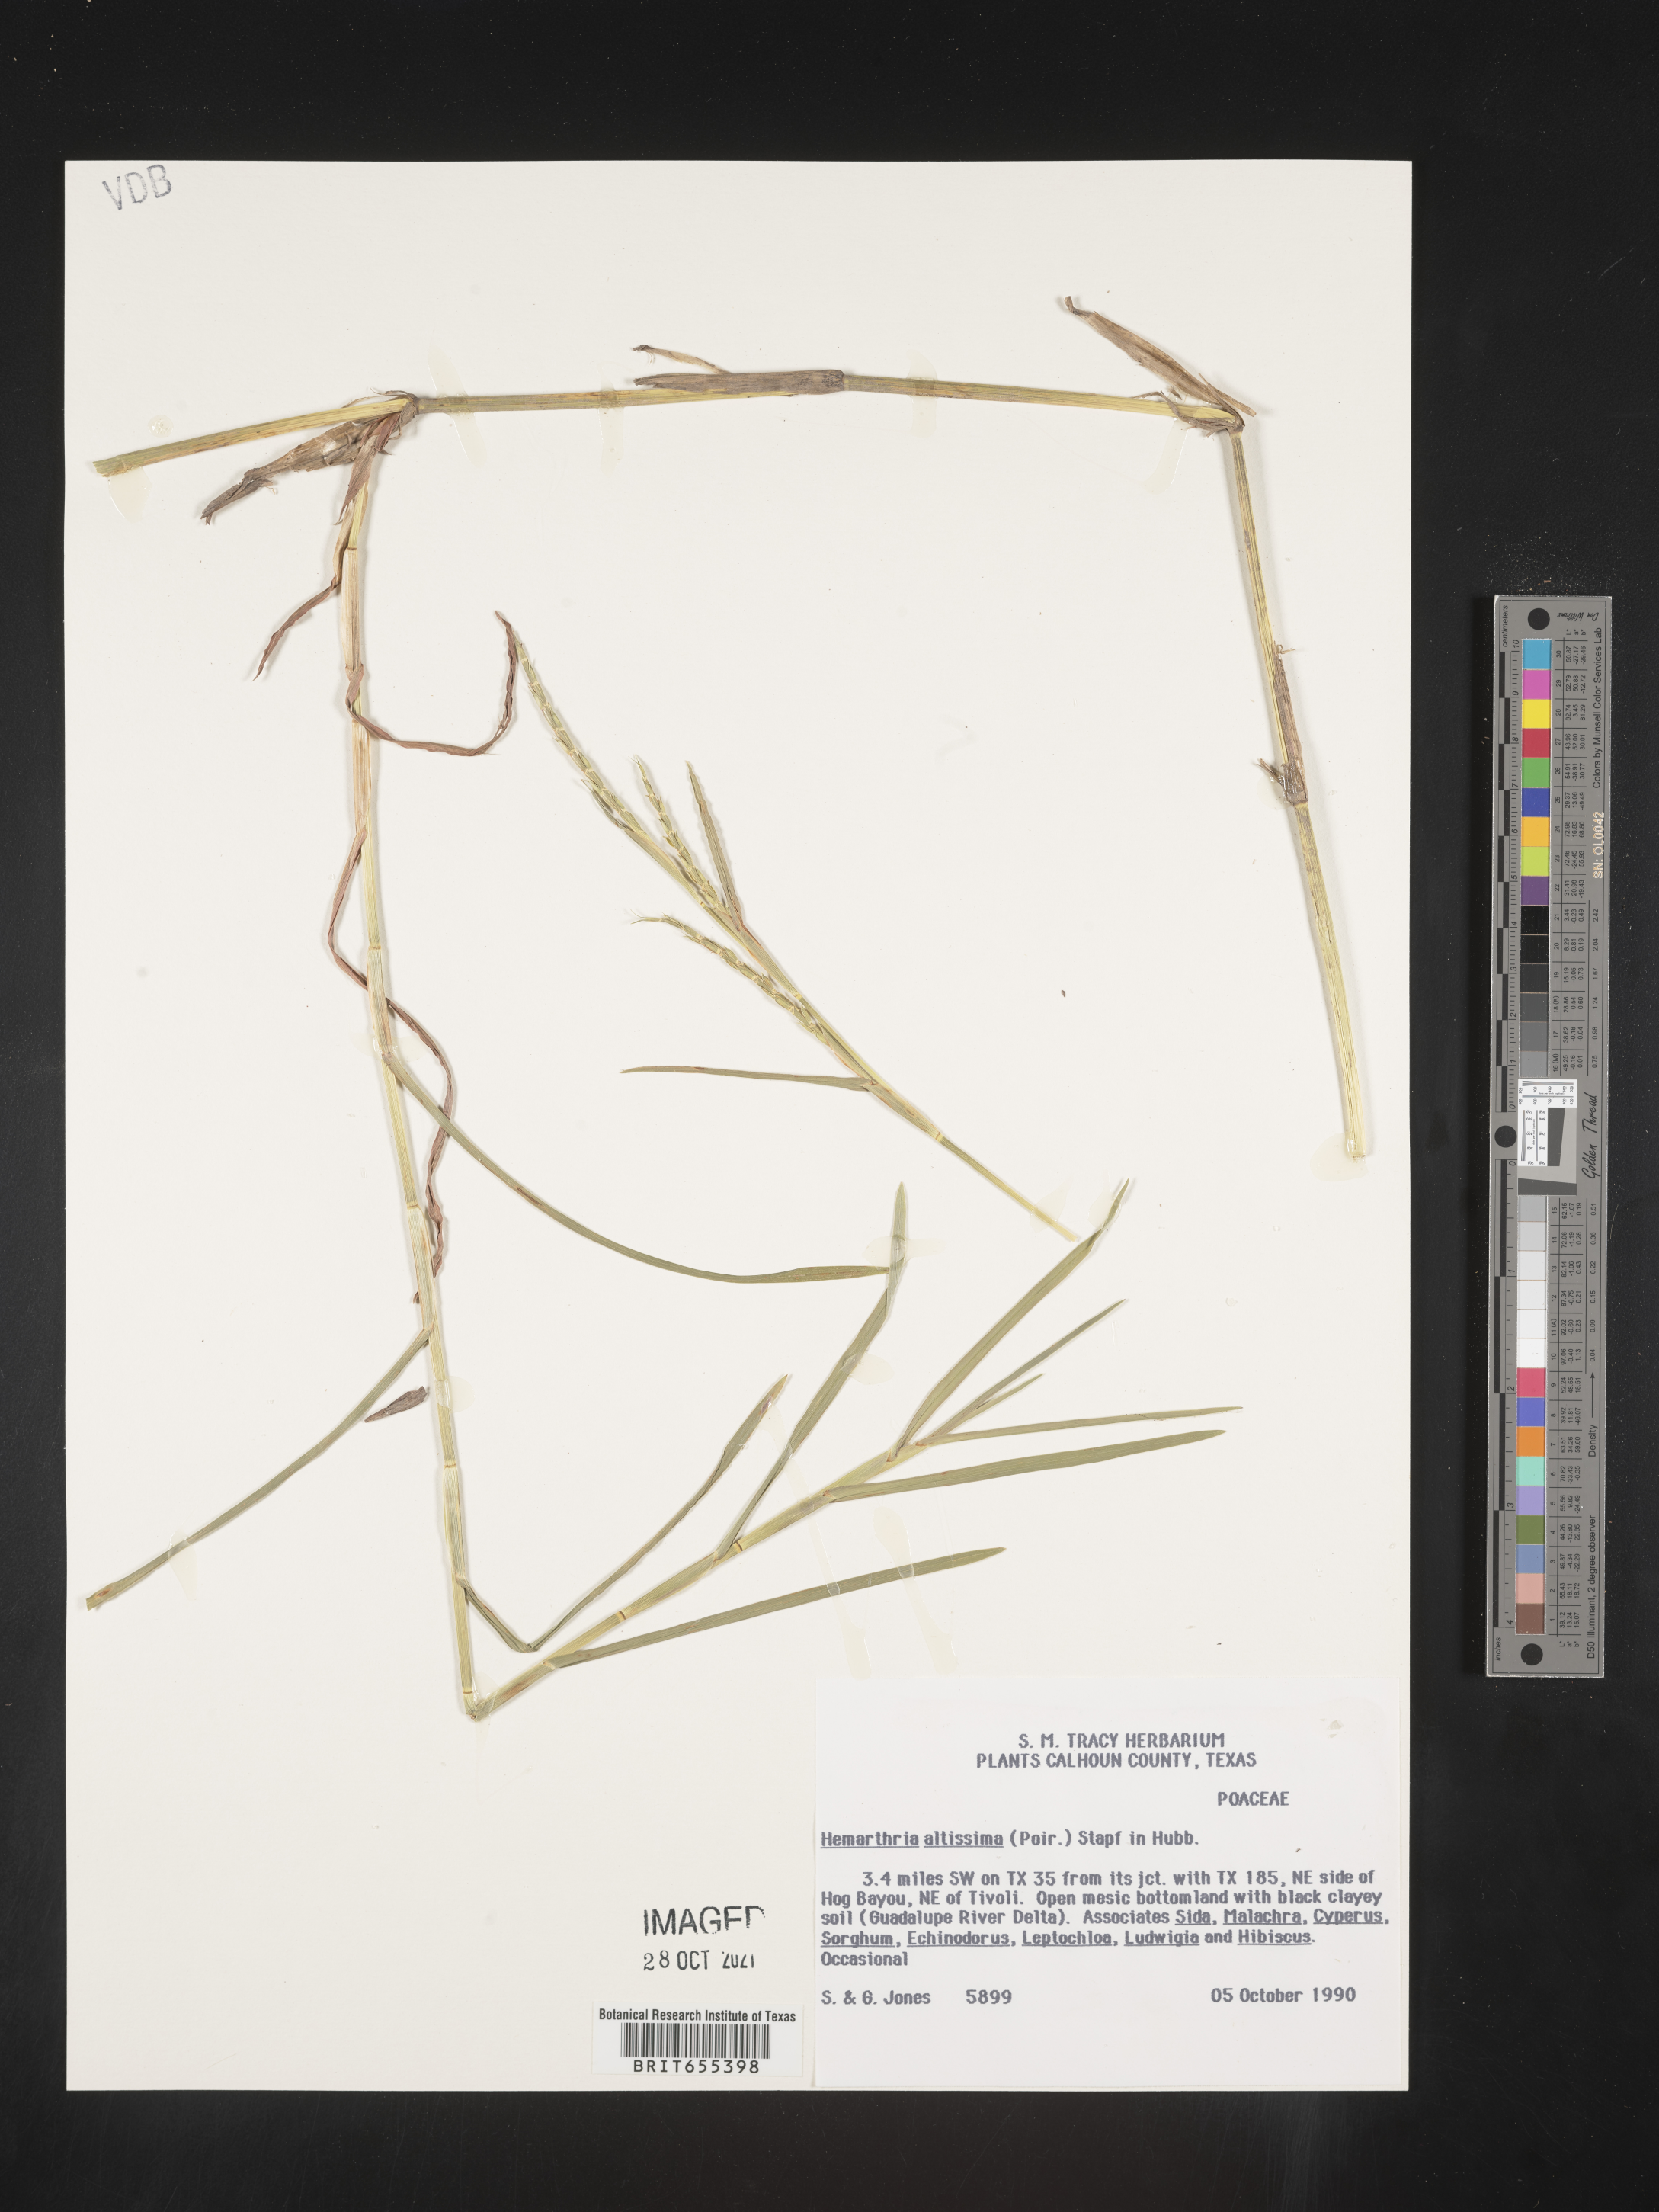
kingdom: Plantae
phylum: Tracheophyta
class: Liliopsida
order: Poales
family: Poaceae
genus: Hemarthria
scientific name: Hemarthria altissima
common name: African jointgrass
